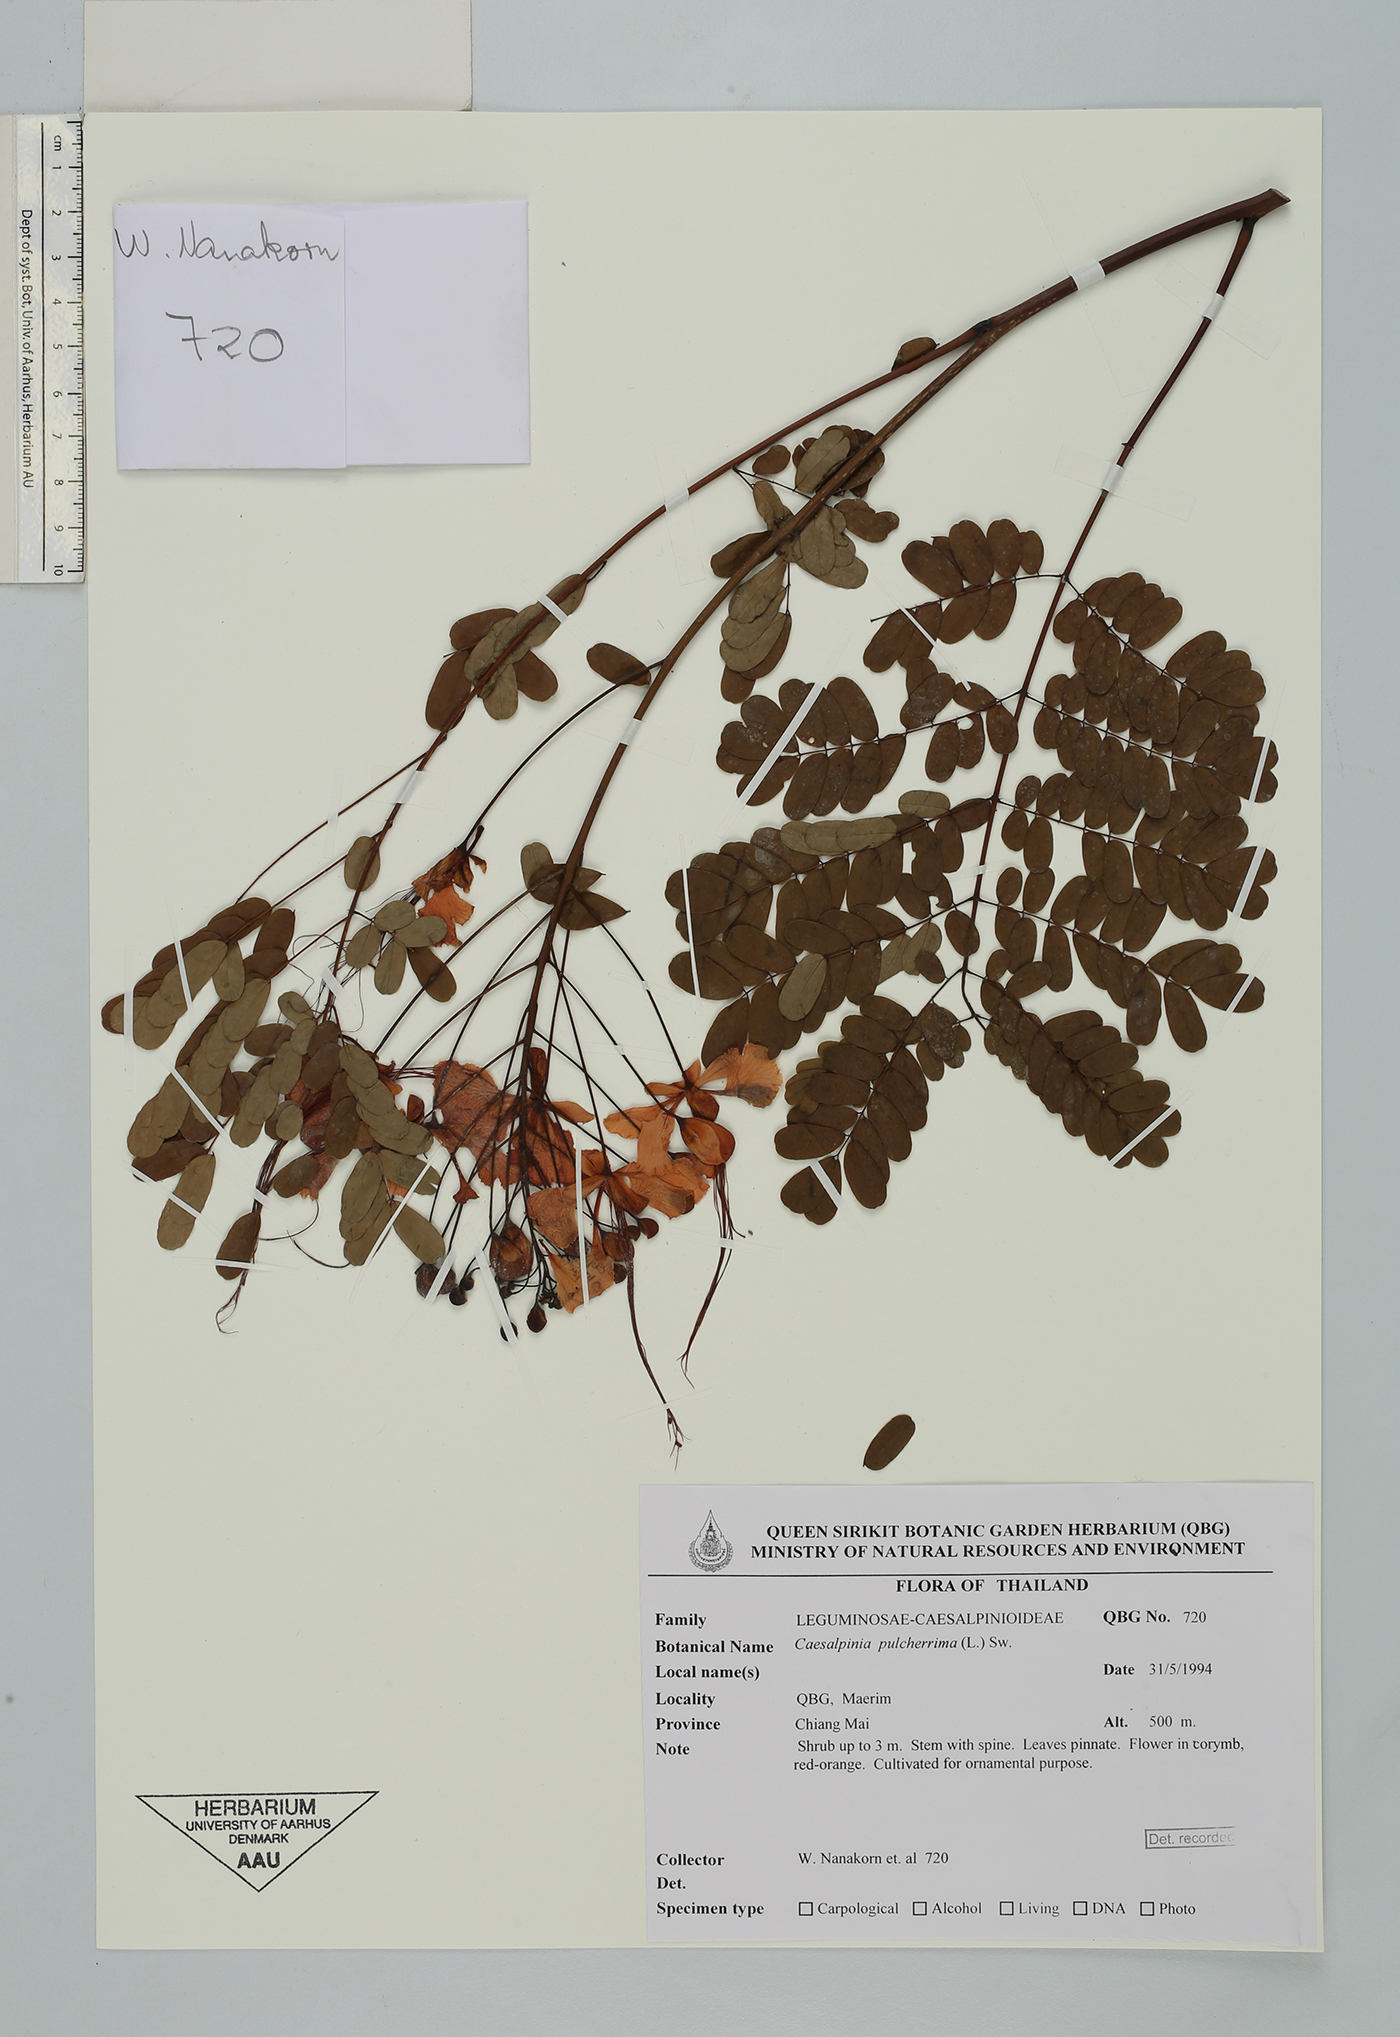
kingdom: Plantae
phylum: Tracheophyta
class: Magnoliopsida
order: Fabales
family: Fabaceae
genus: Caesalpinia
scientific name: Caesalpinia pulcherrima
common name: Pride-of-barbados
